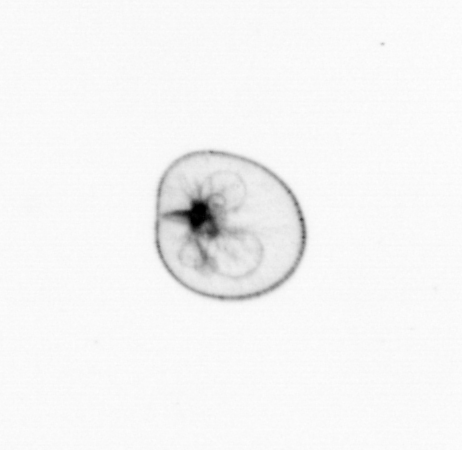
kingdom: Chromista
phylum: Myzozoa
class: Dinophyceae
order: Noctilucales
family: Noctilucaceae
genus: Noctiluca
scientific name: Noctiluca scintillans
